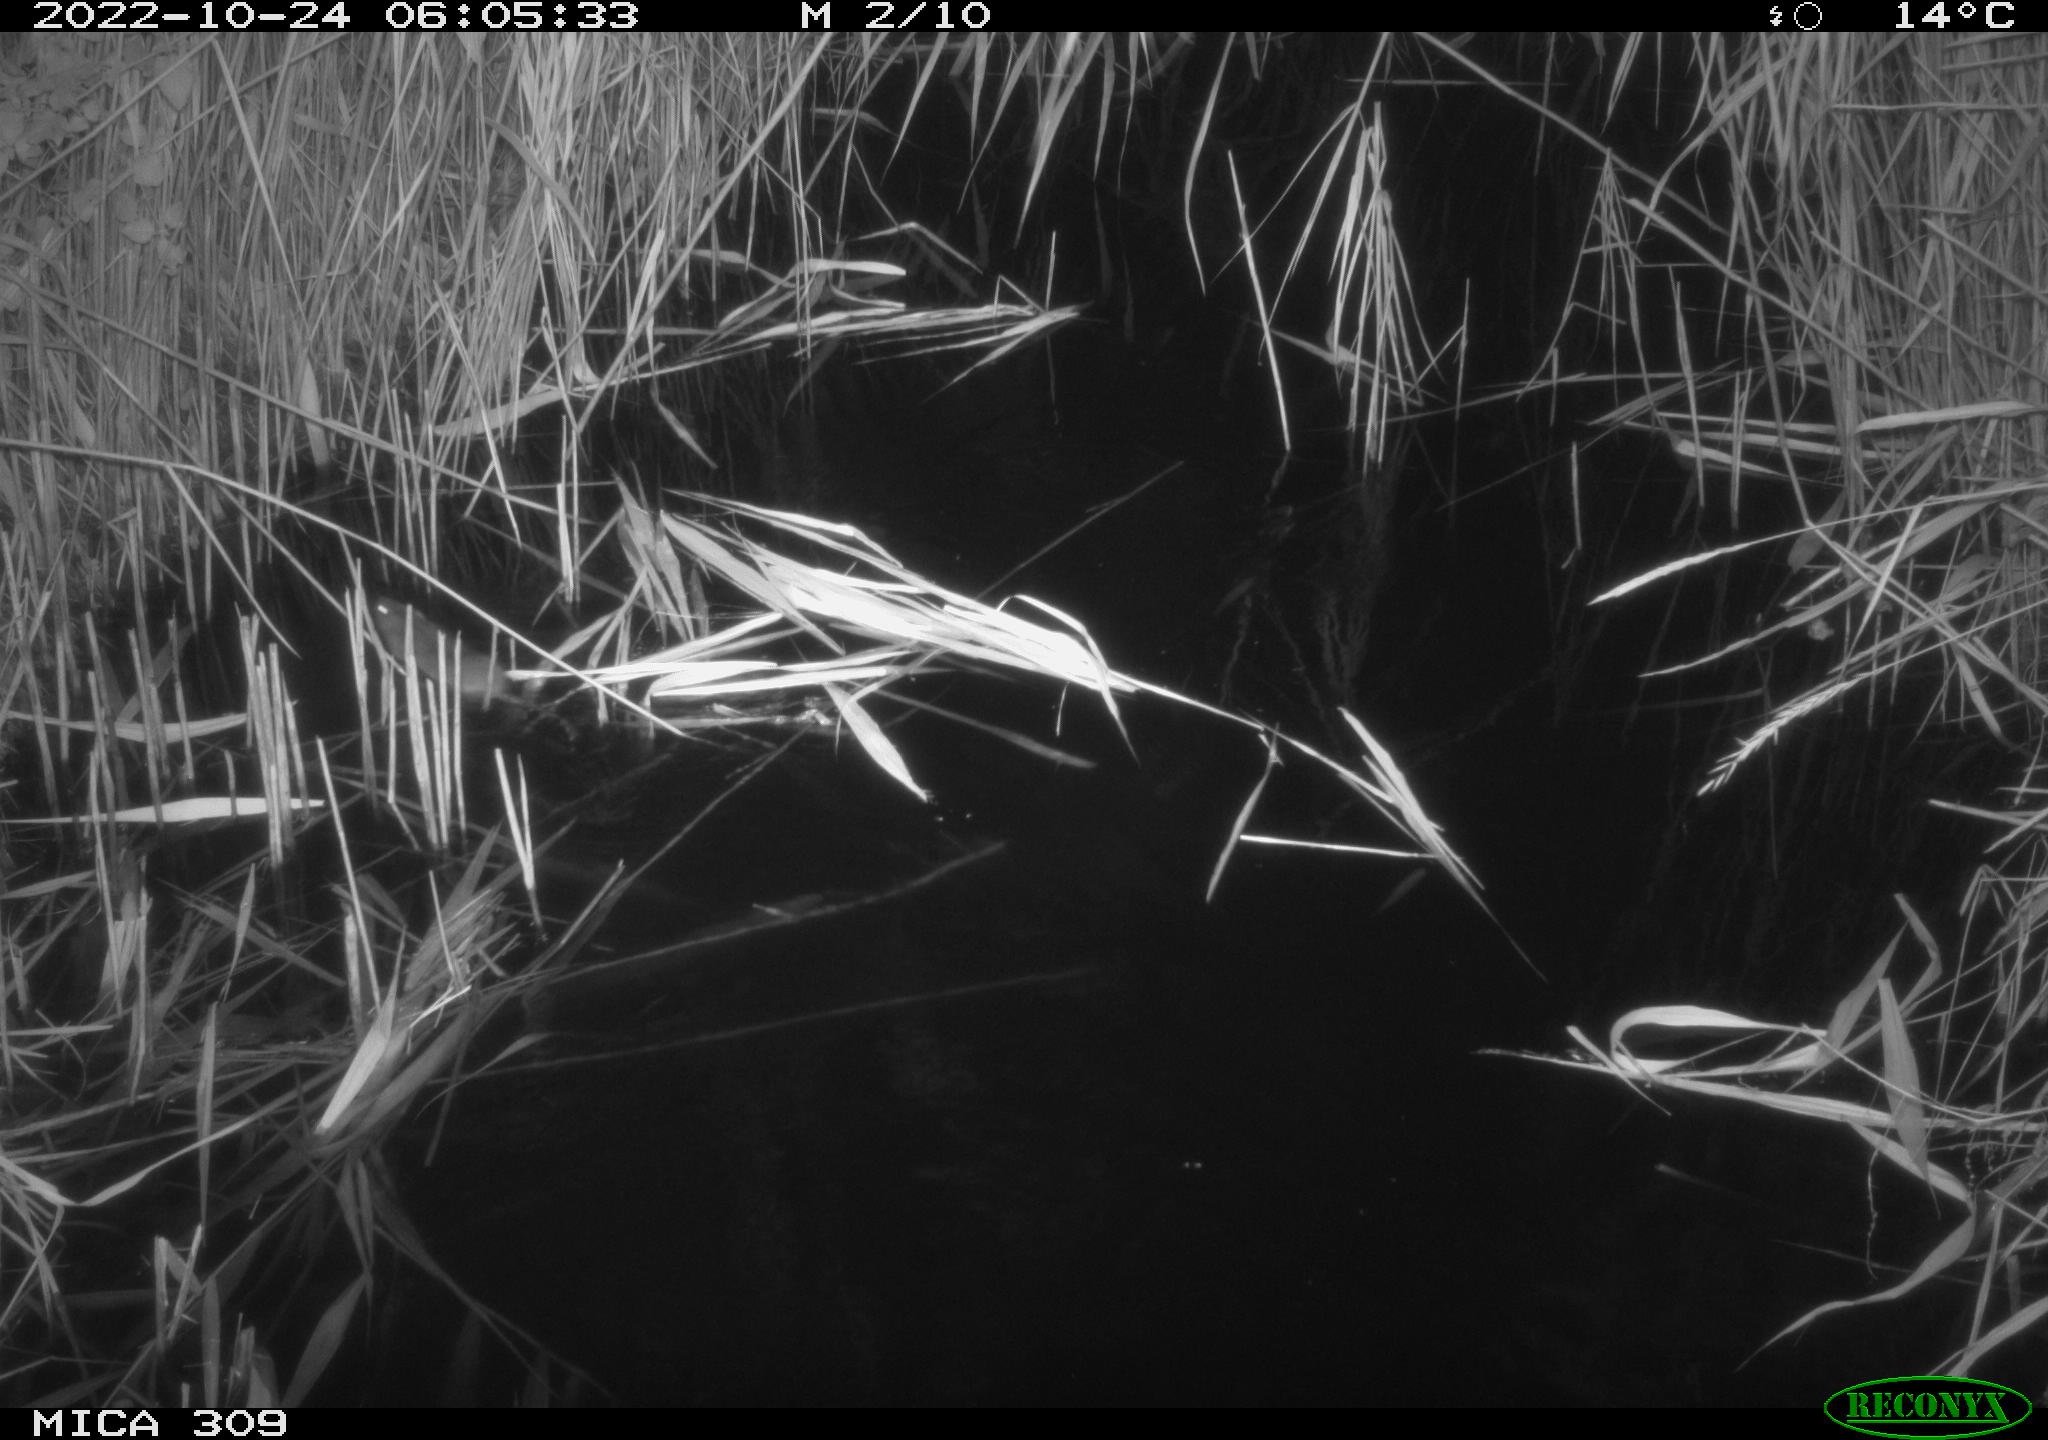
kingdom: Animalia
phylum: Chordata
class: Mammalia
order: Rodentia
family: Cricetidae
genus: Ondatra
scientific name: Ondatra zibethicus
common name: Muskrat
